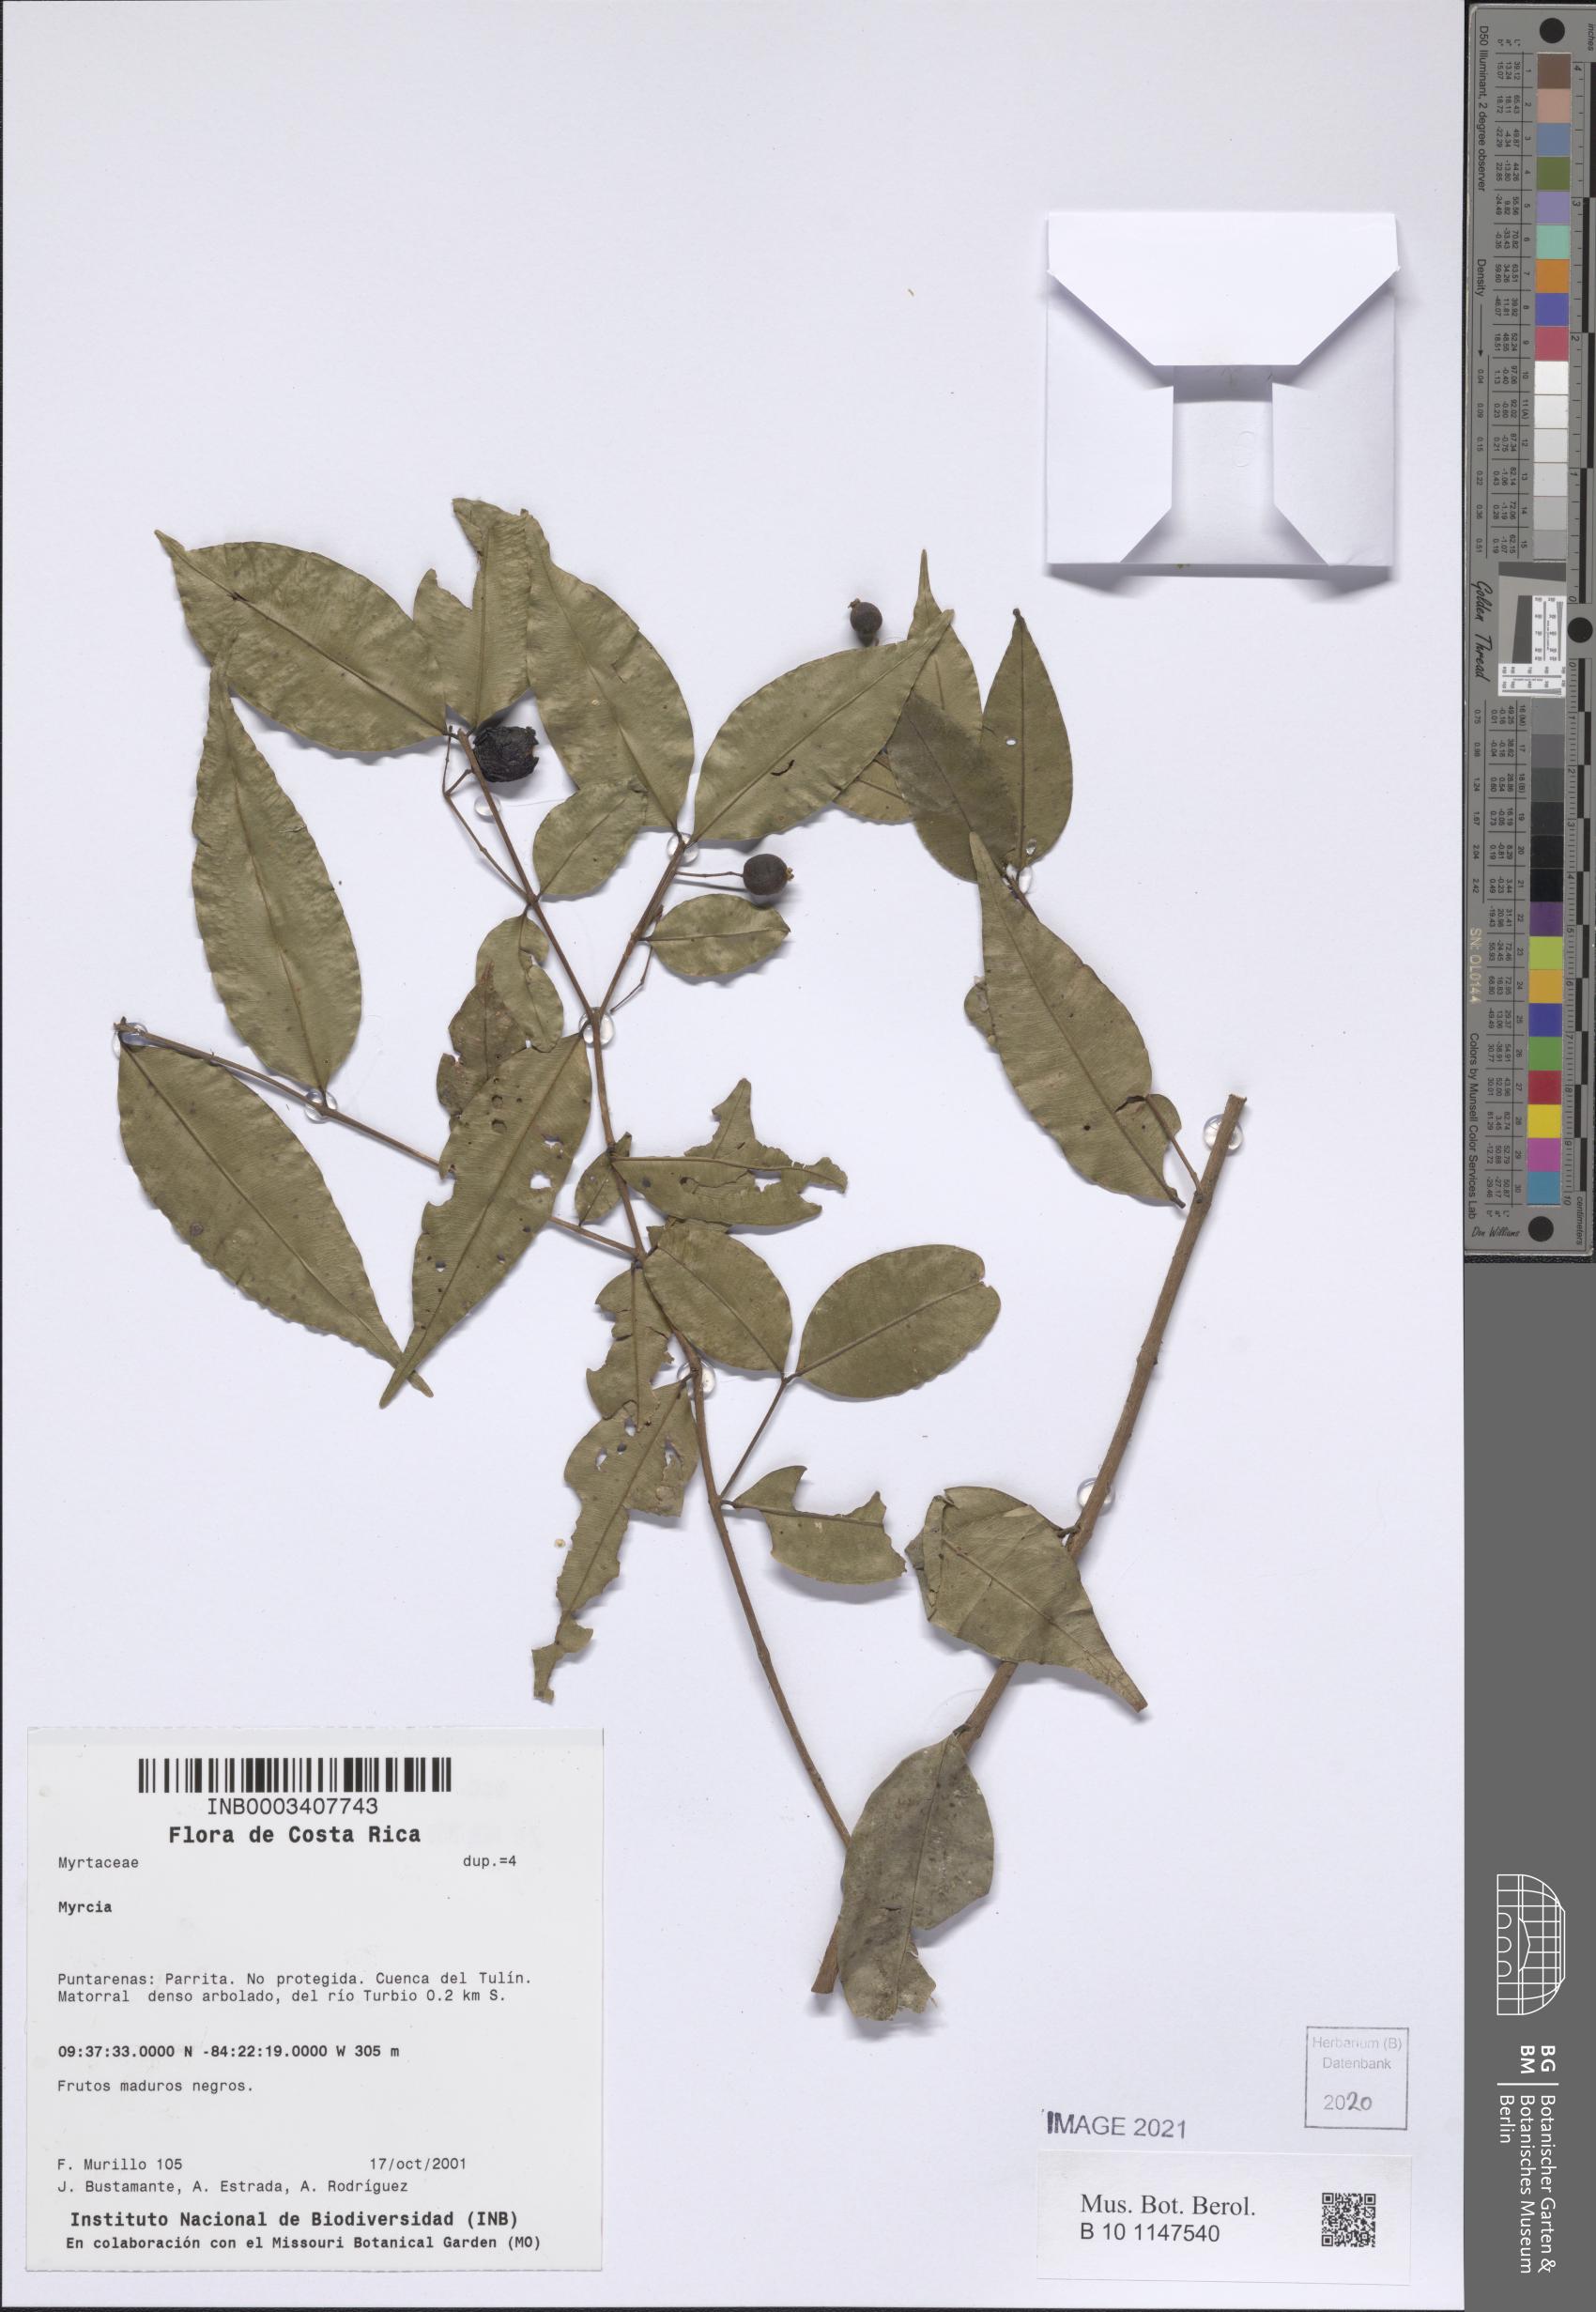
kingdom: Plantae
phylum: Tracheophyta
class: Magnoliopsida
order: Myrtales
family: Myrtaceae
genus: Myrcia
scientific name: Myrcia
